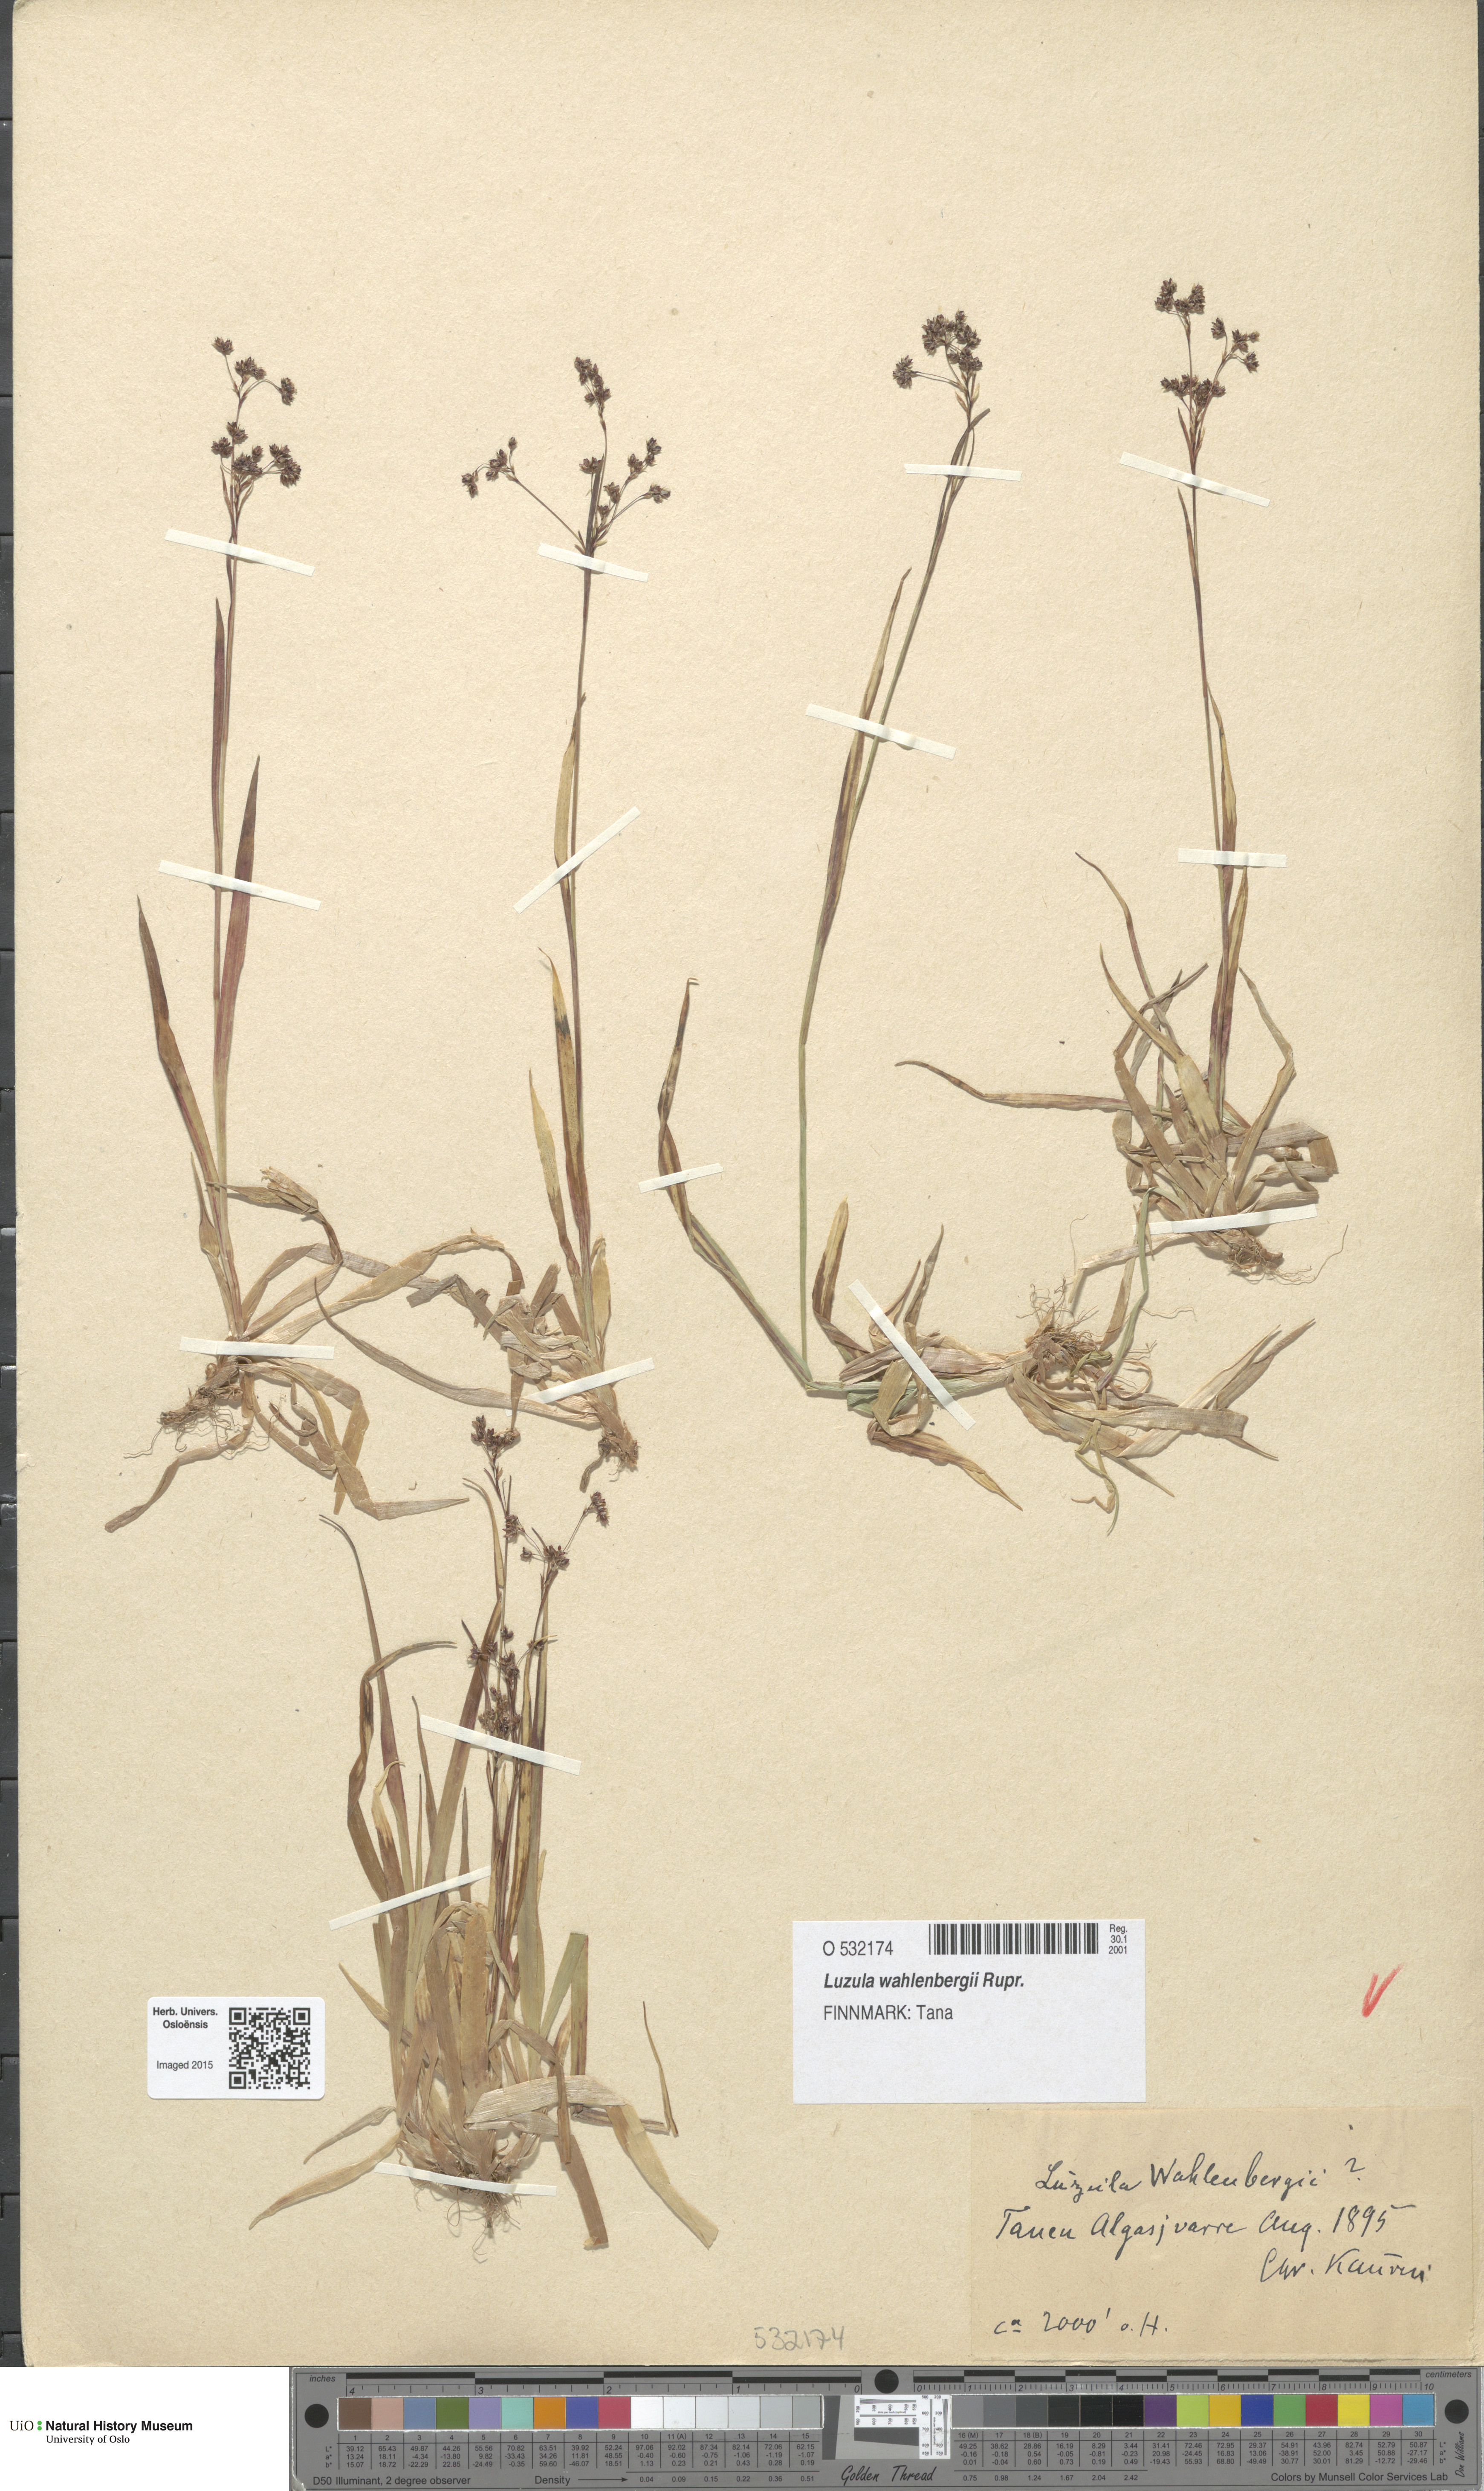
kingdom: Plantae
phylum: Tracheophyta
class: Liliopsida
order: Poales
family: Juncaceae
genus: Luzula
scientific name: Luzula wahlenbergii
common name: Wahlenberg's wood-rush
